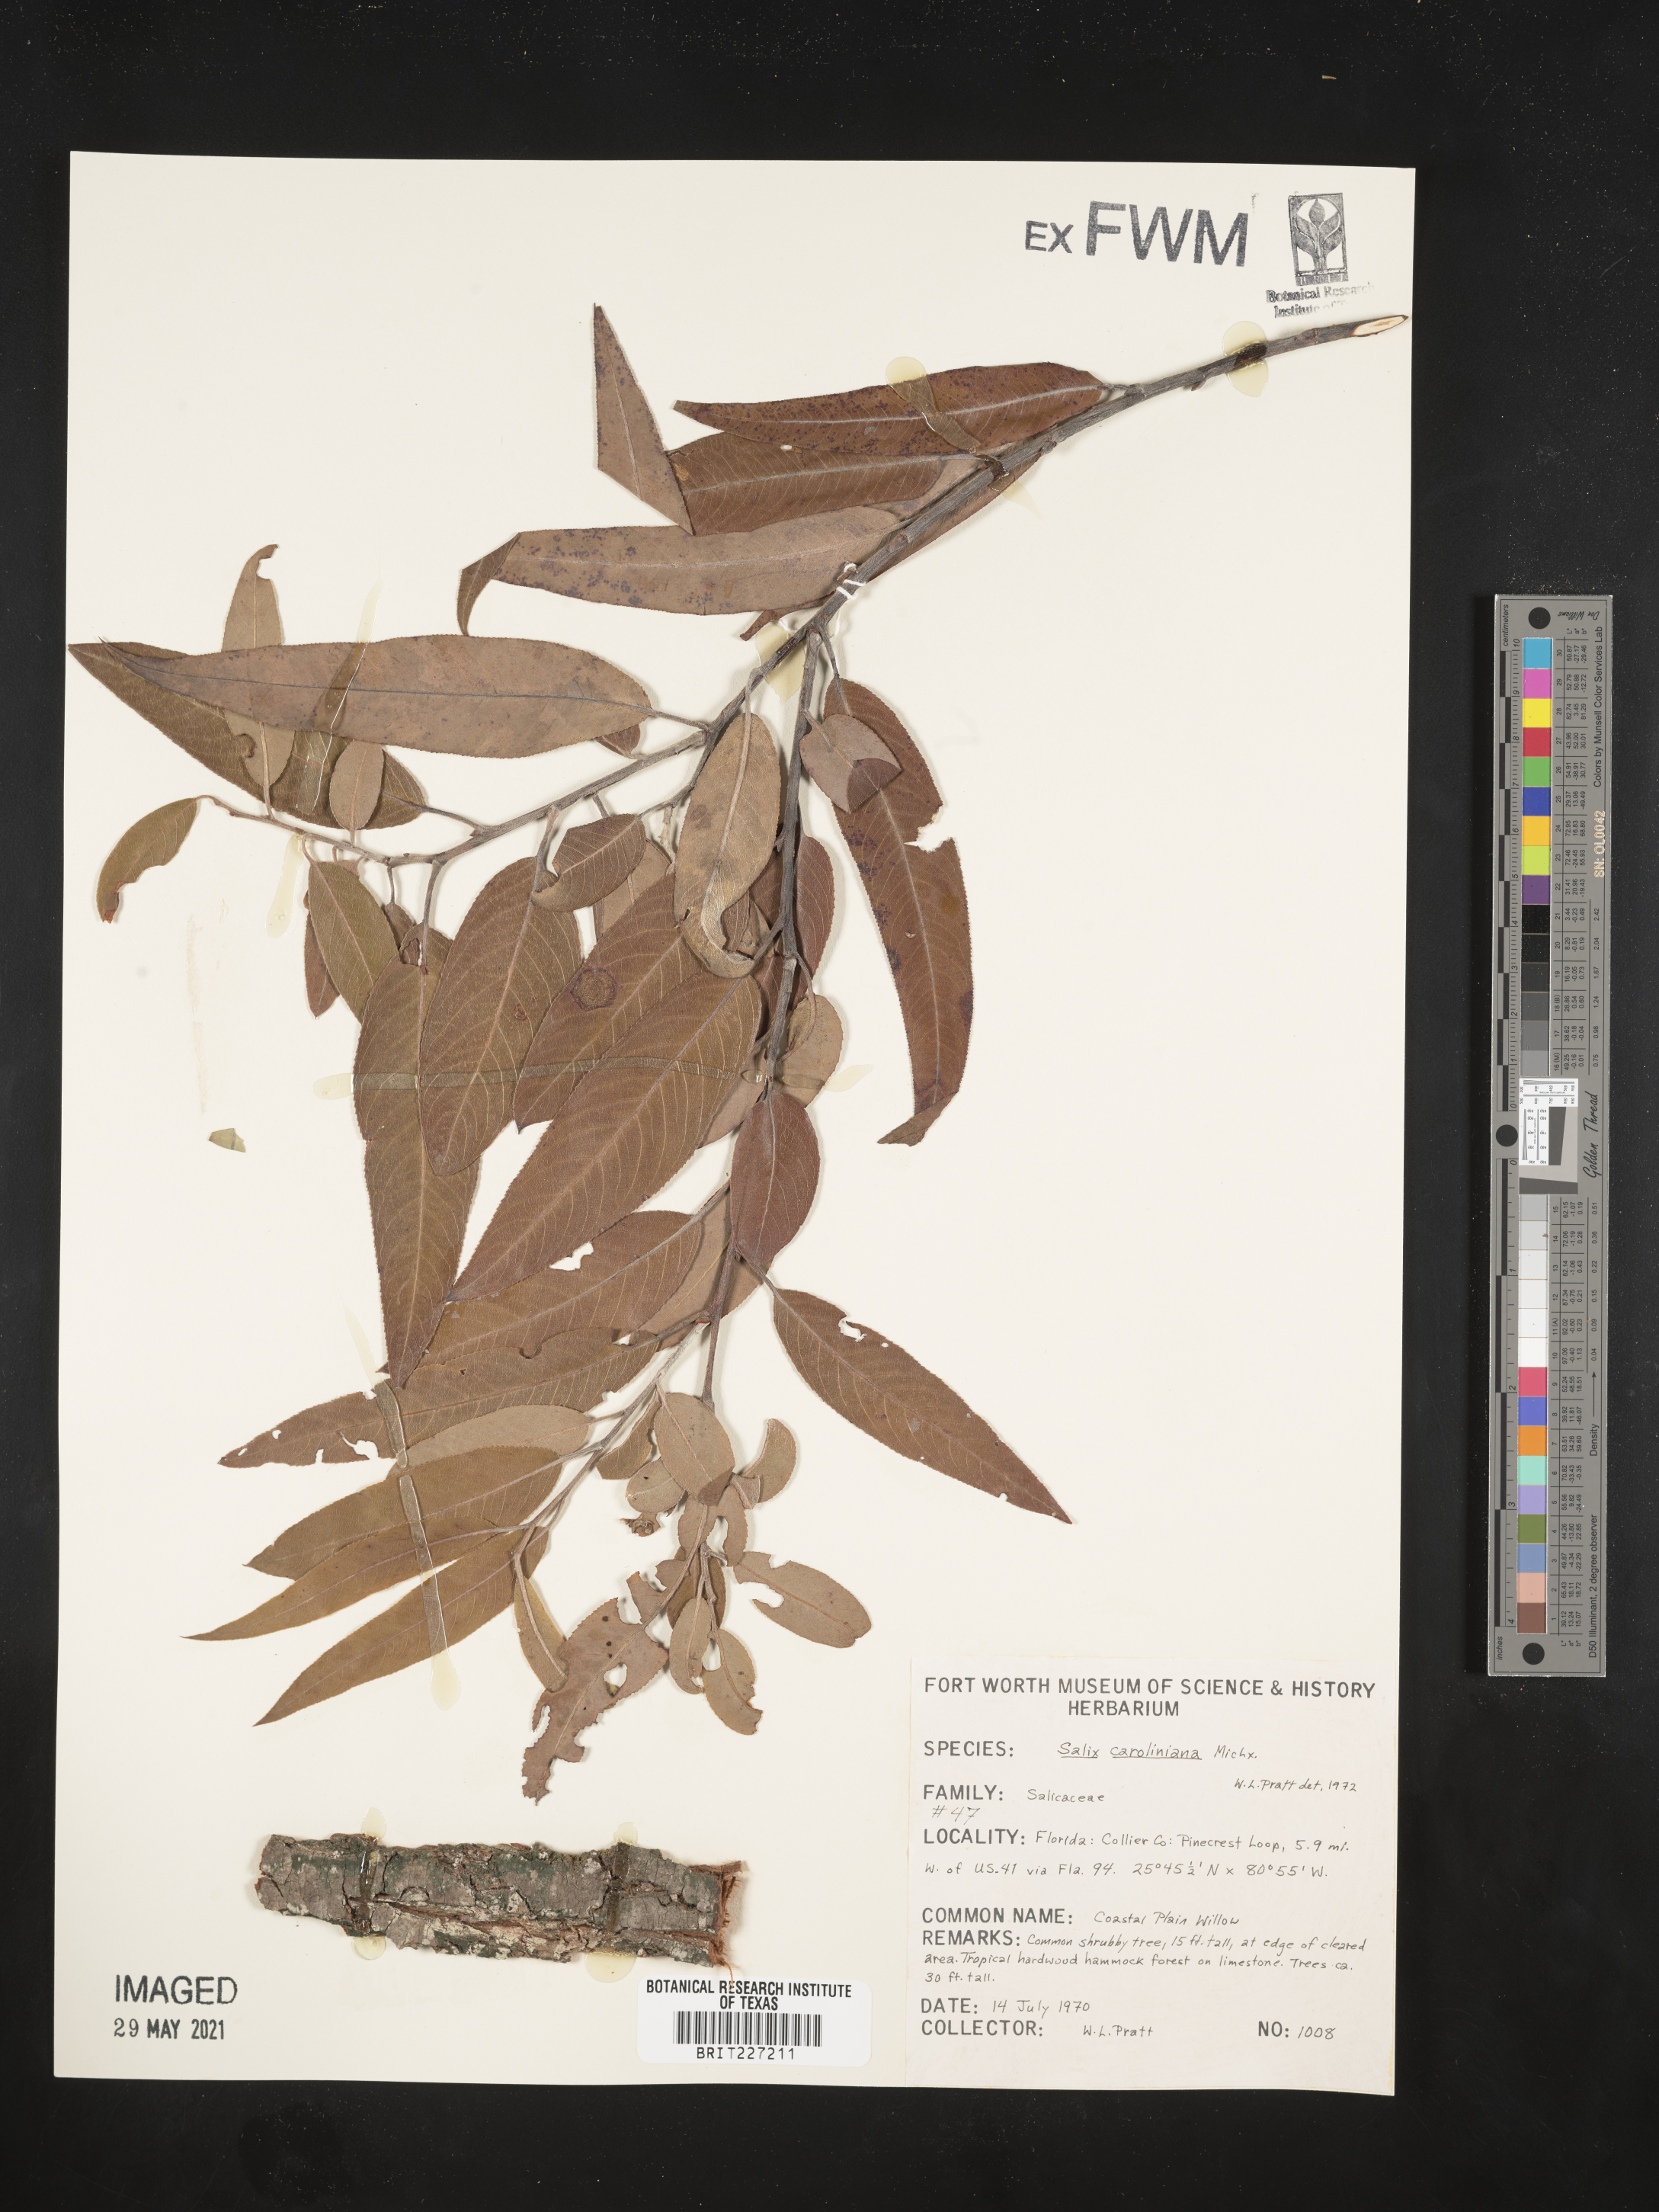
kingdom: Plantae
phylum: Tracheophyta
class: Magnoliopsida
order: Malpighiales
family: Salicaceae
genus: Salix
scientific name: Salix caroliniana
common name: Carolina willow
